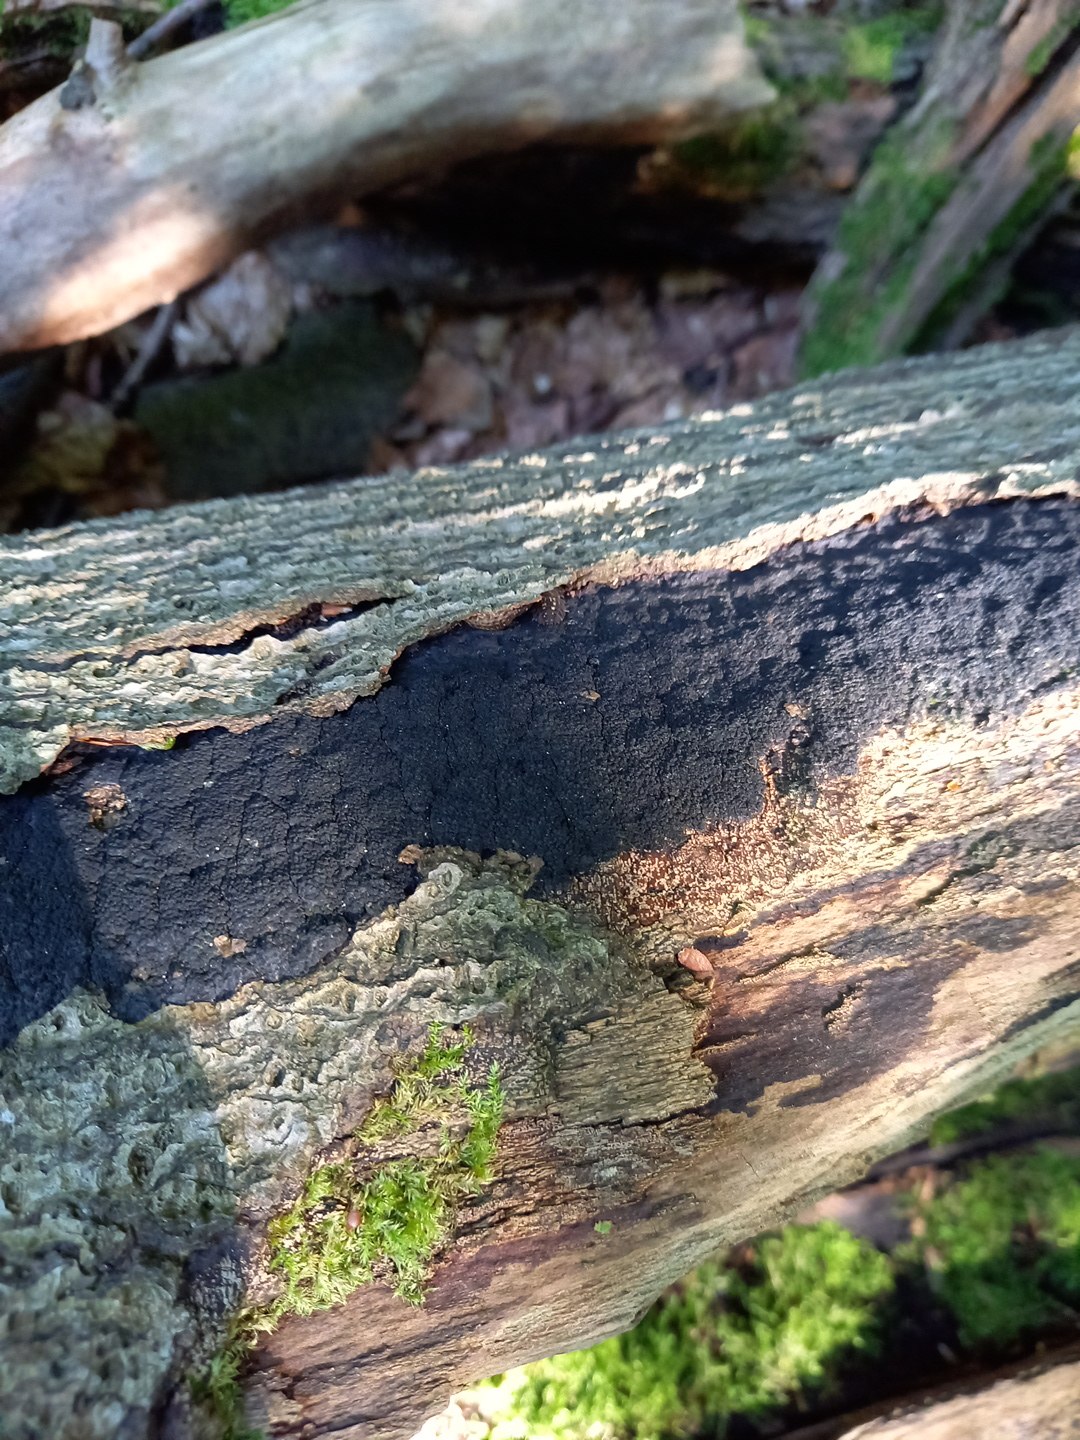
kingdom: Fungi
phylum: Ascomycota
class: Sordariomycetes
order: Xylariales
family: Diatrypaceae
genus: Eutypa
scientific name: Eutypa spinosa
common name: grov kulskorpe
